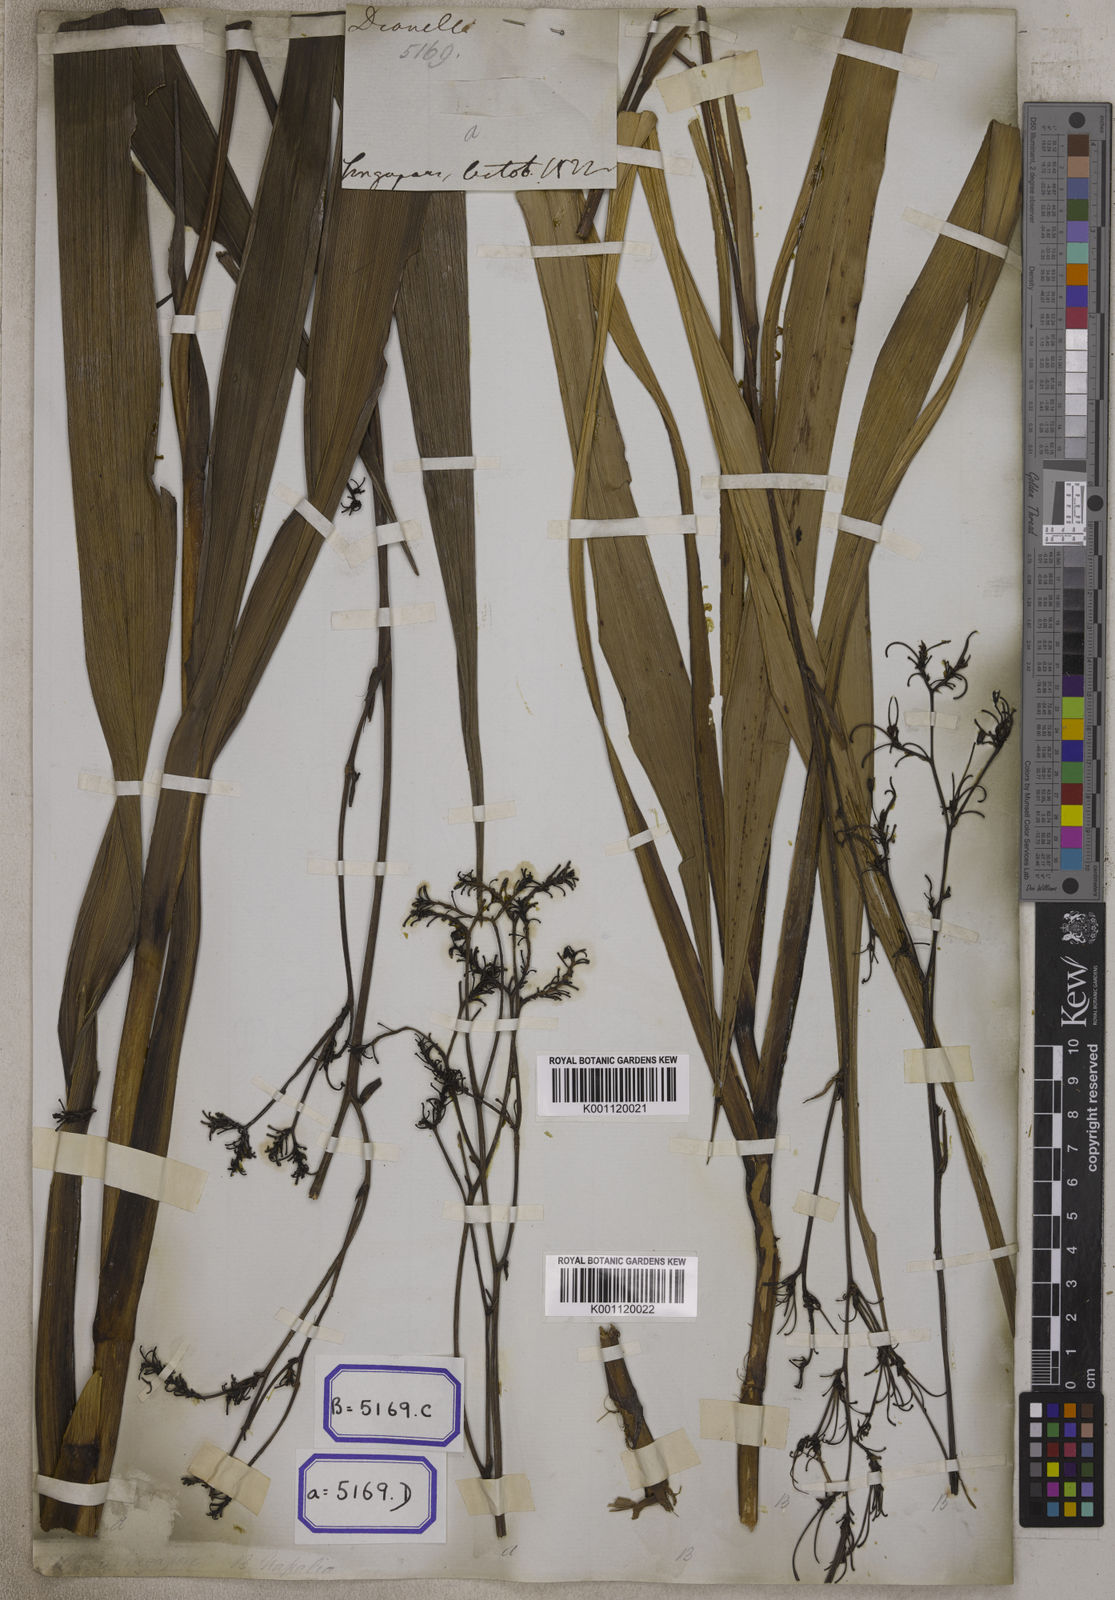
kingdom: Plantae
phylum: Tracheophyta
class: Liliopsida
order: Asparagales
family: Asphodelaceae
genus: Dianella
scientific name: Dianella ensifolia
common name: New zealand lilyplant
